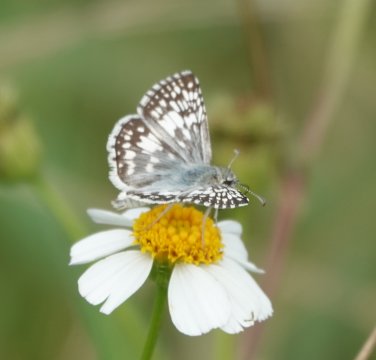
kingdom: Animalia
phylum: Arthropoda
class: Insecta
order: Lepidoptera
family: Hesperiidae
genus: Pyrgus
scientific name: Pyrgus communis
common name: Common Checkered-Skipper
